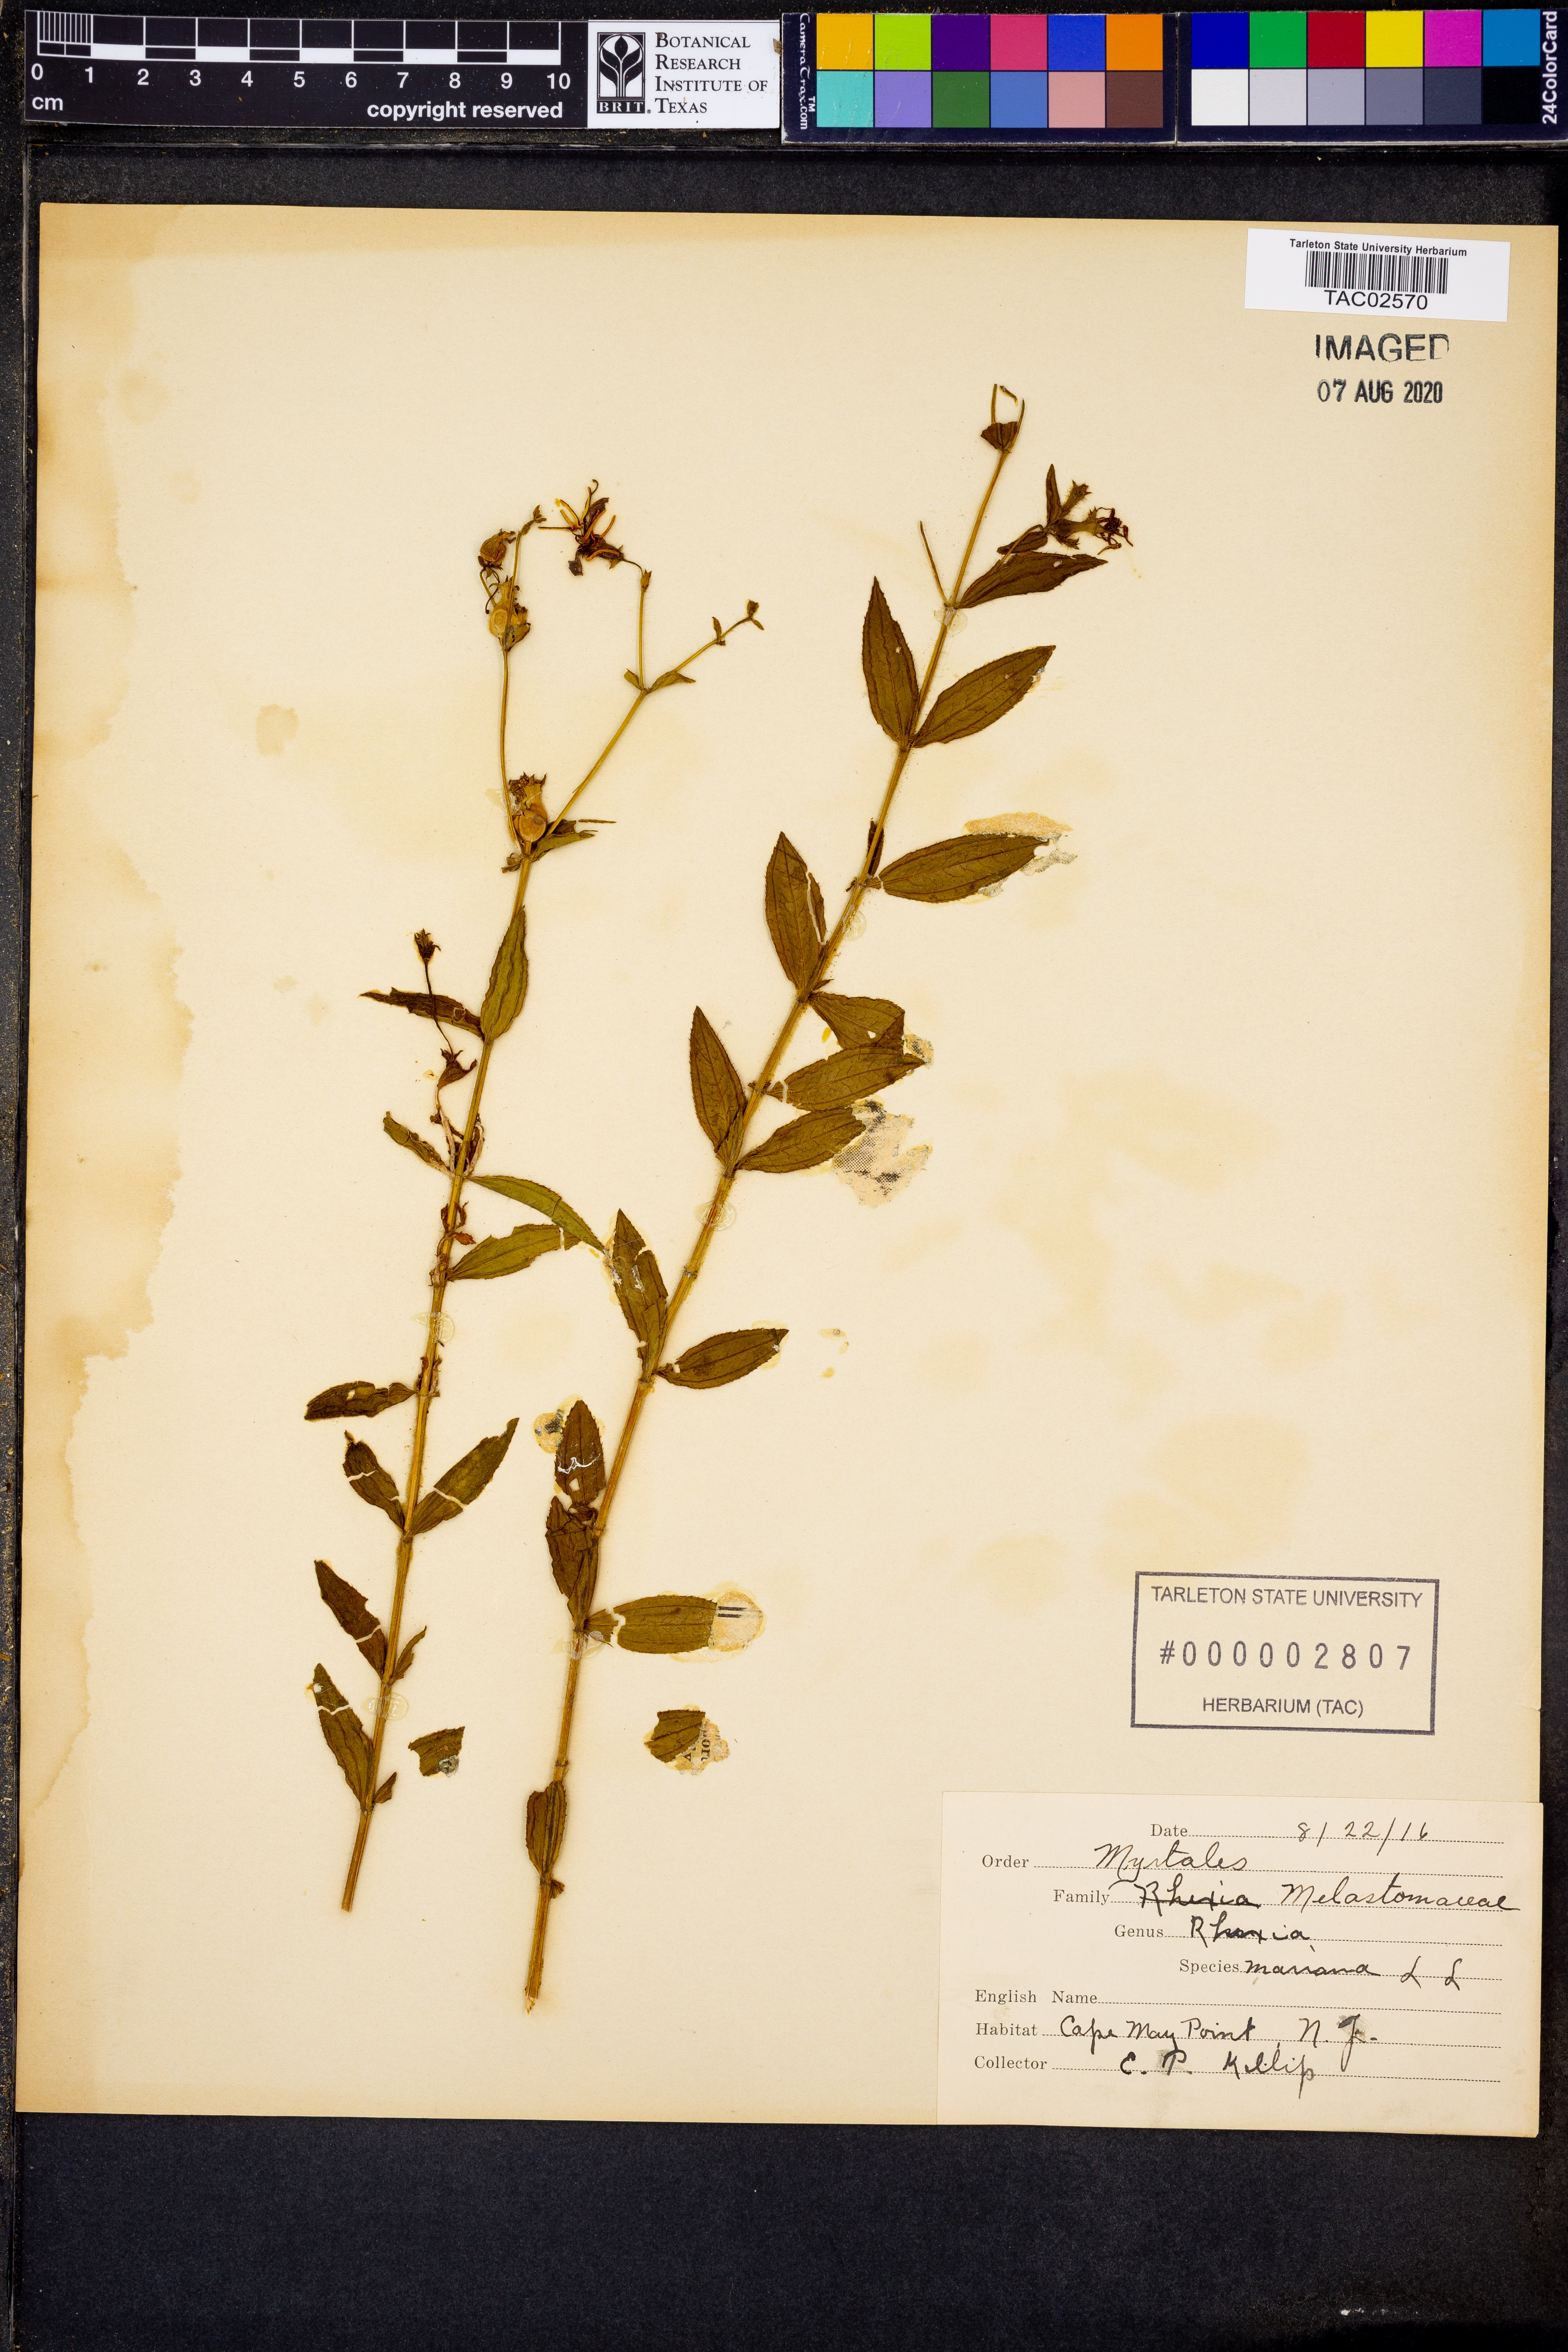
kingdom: Plantae
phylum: Tracheophyta
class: Magnoliopsida
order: Myrtales
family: Melastomataceae
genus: Rhexia
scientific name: Rhexia mariana
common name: Dull meadow-pitcher
